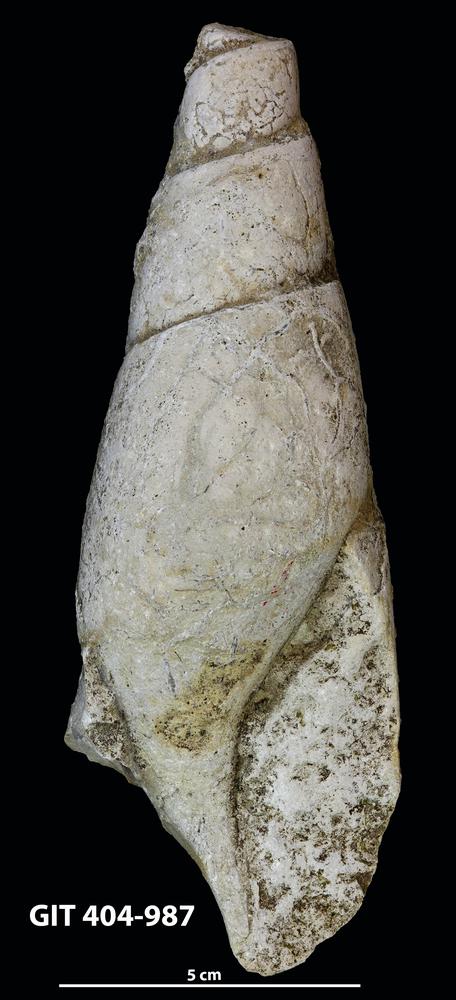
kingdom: Animalia
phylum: Mollusca
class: Gastropoda
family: Subulitidae
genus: Subulites
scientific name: Subulites Phasianella gigas
